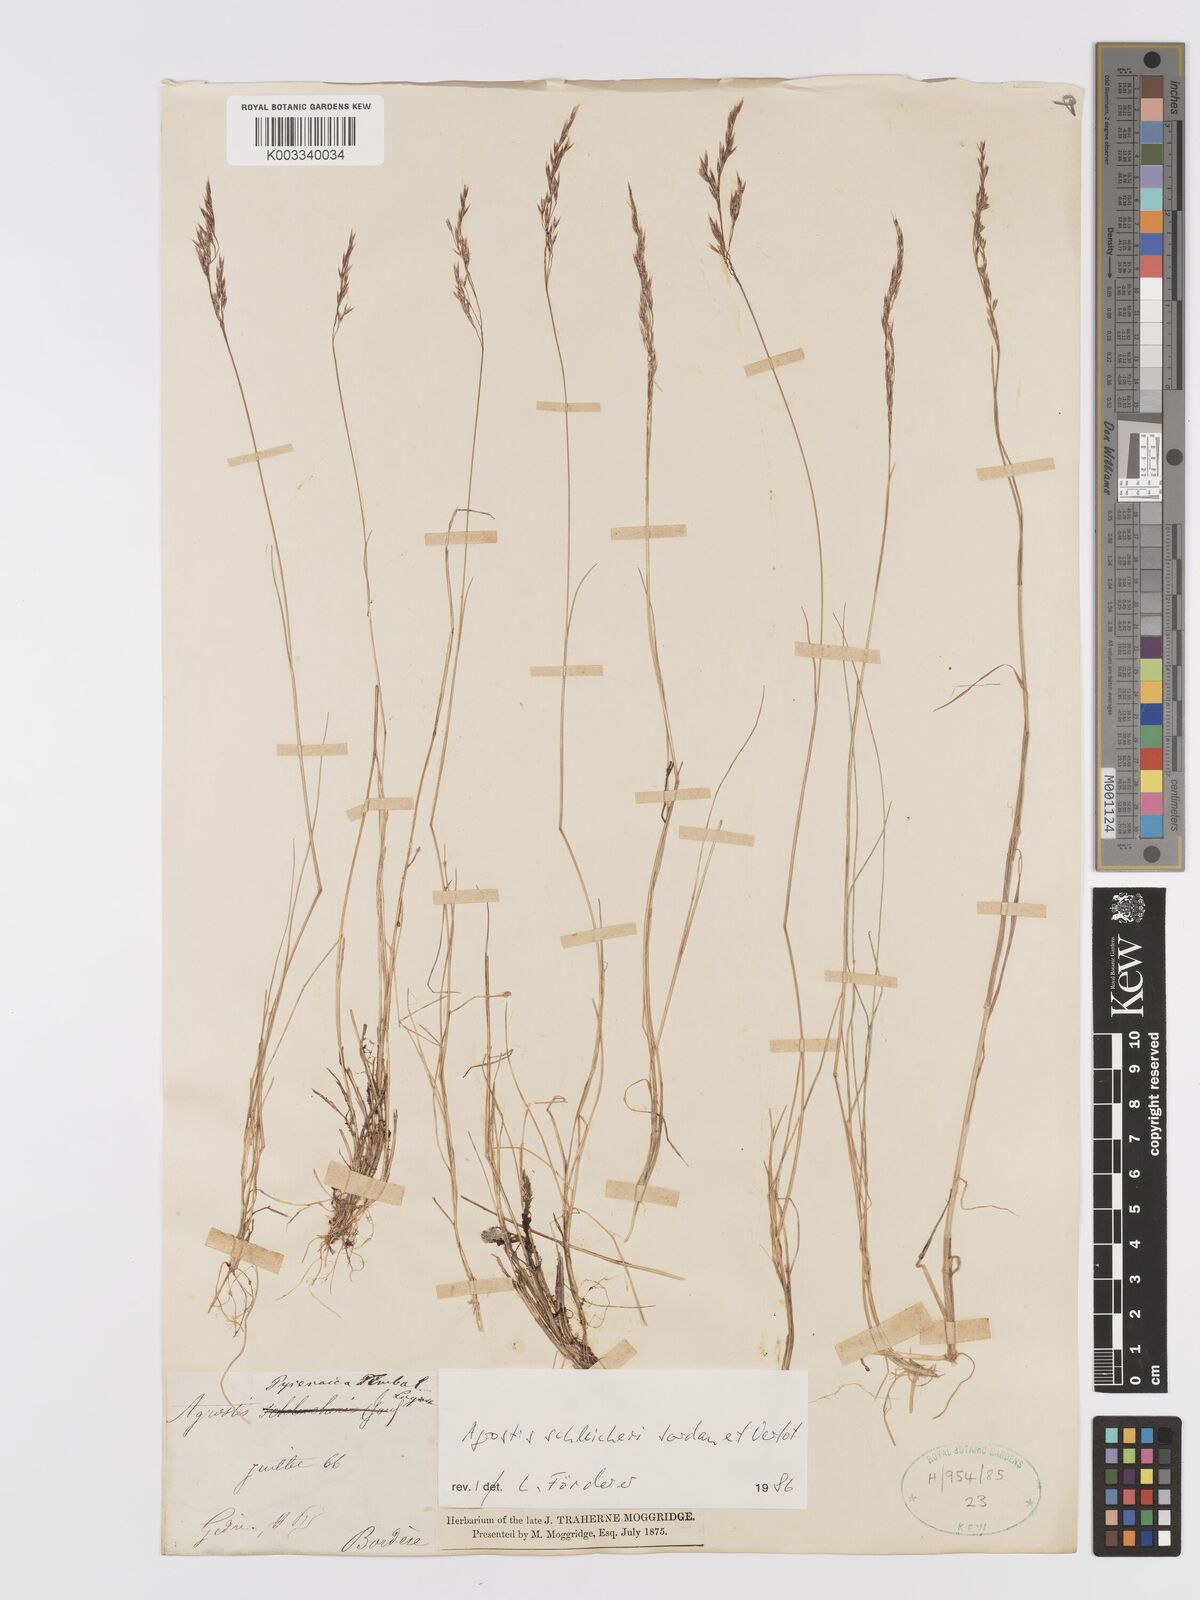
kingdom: Plantae
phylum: Tracheophyta
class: Liliopsida
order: Poales
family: Poaceae
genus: Alpagrostis
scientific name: Alpagrostis schleicheri
